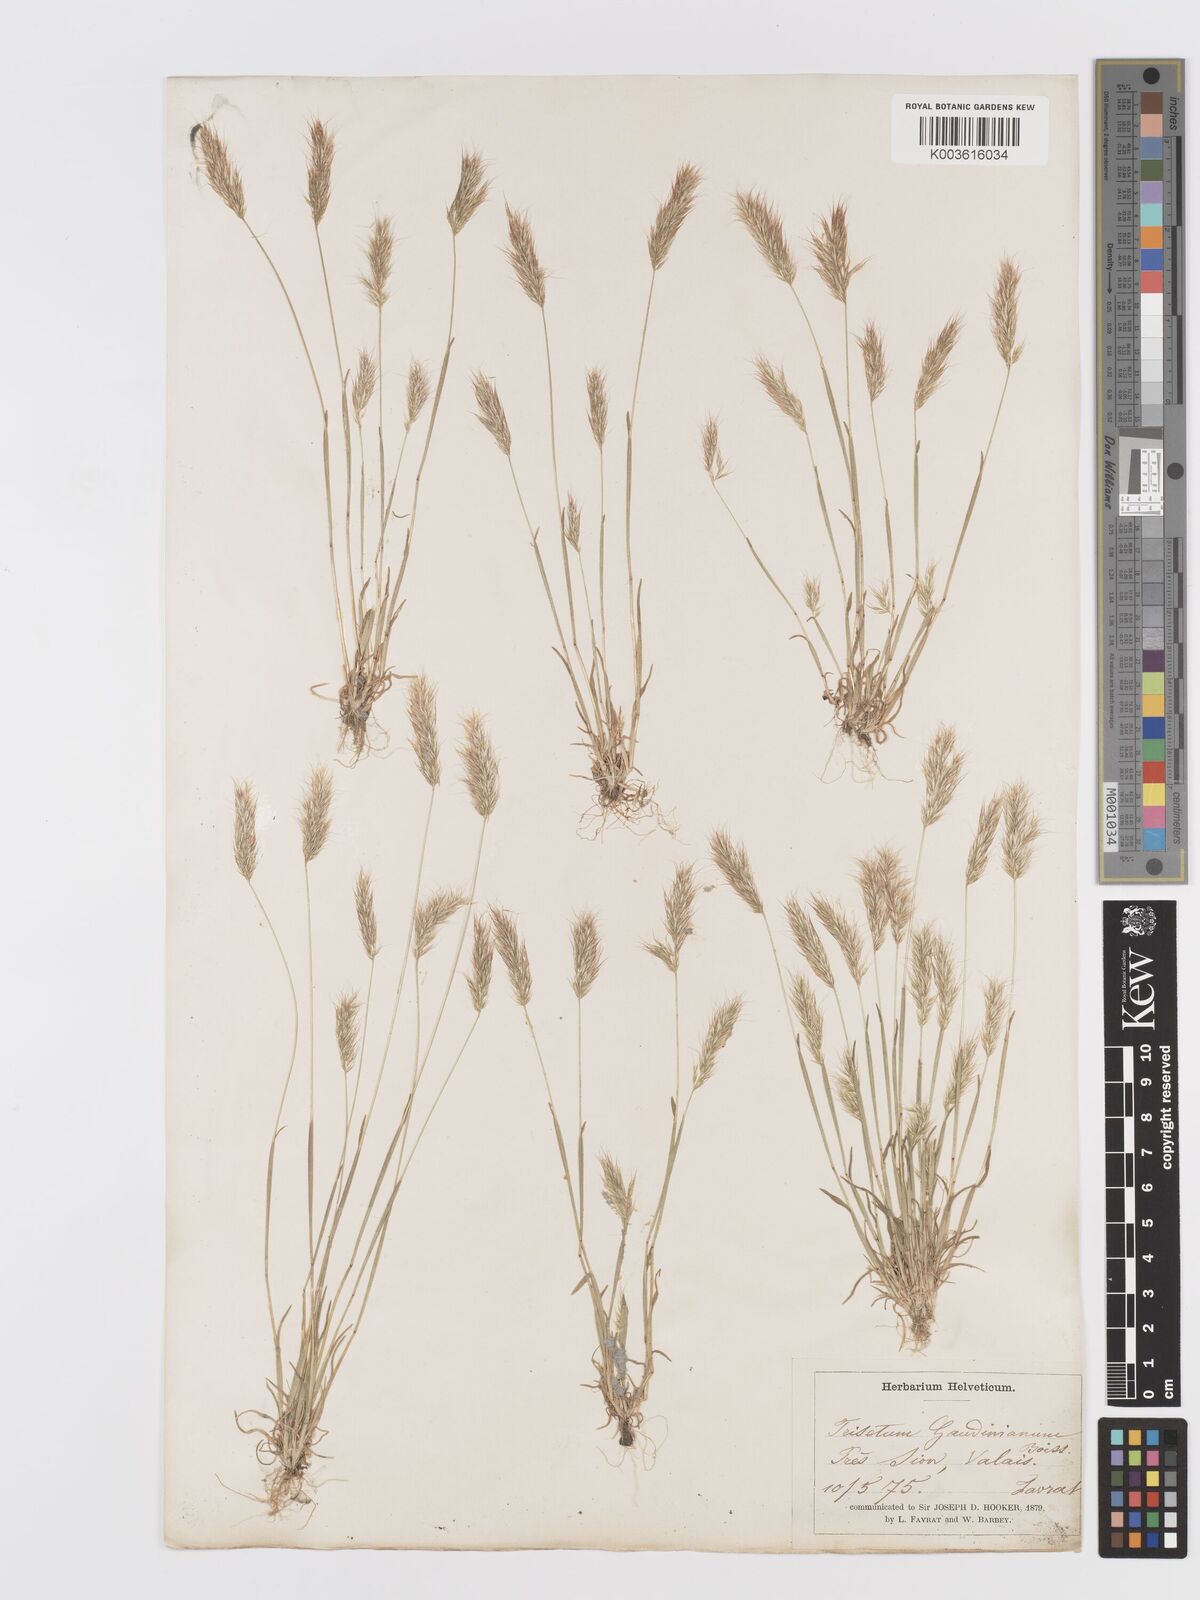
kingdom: Plantae
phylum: Tracheophyta
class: Liliopsida
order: Poales
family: Poaceae
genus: Trisetaria
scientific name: Trisetaria loeflingiana
